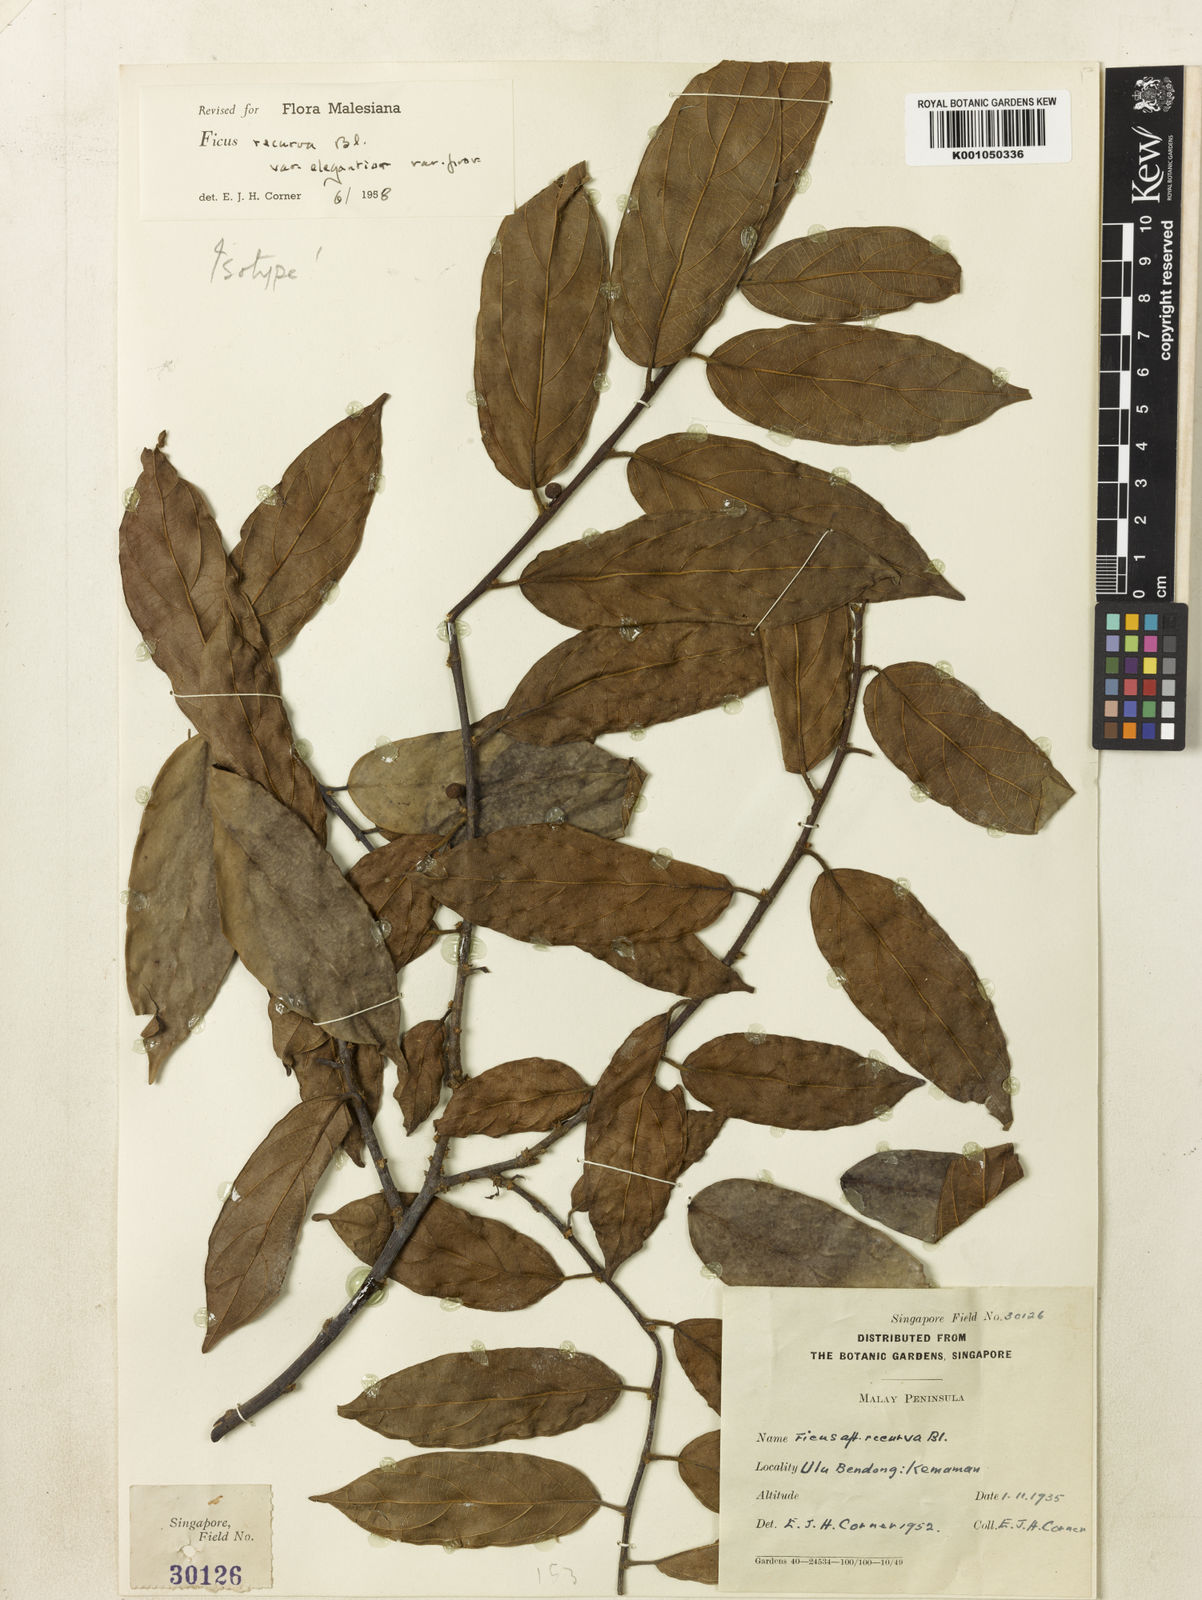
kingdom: Plantae
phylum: Tracheophyta
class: Magnoliopsida
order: Rosales
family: Moraceae
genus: Ficus
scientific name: Ficus recurva
